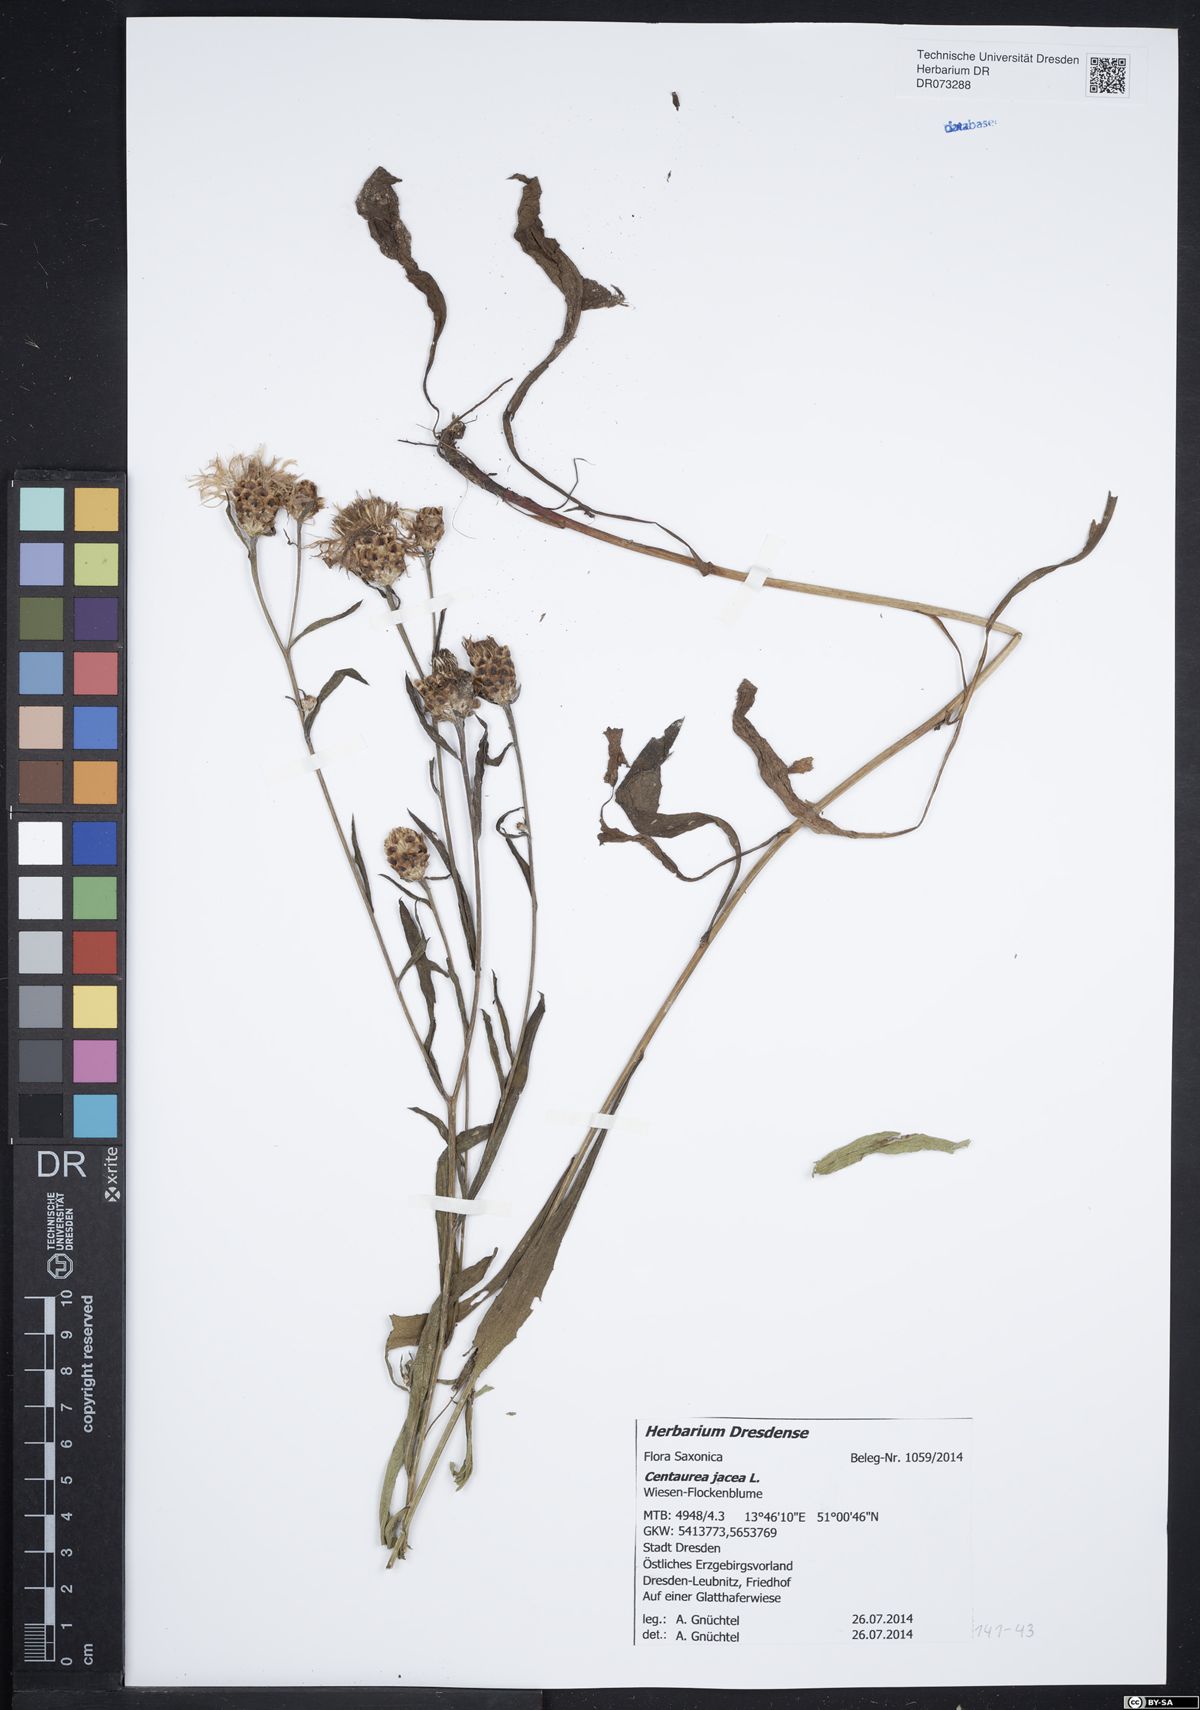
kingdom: Plantae
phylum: Tracheophyta
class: Magnoliopsida
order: Asterales
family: Asteraceae
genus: Centaurea
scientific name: Centaurea jacea
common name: Brown knapweed
